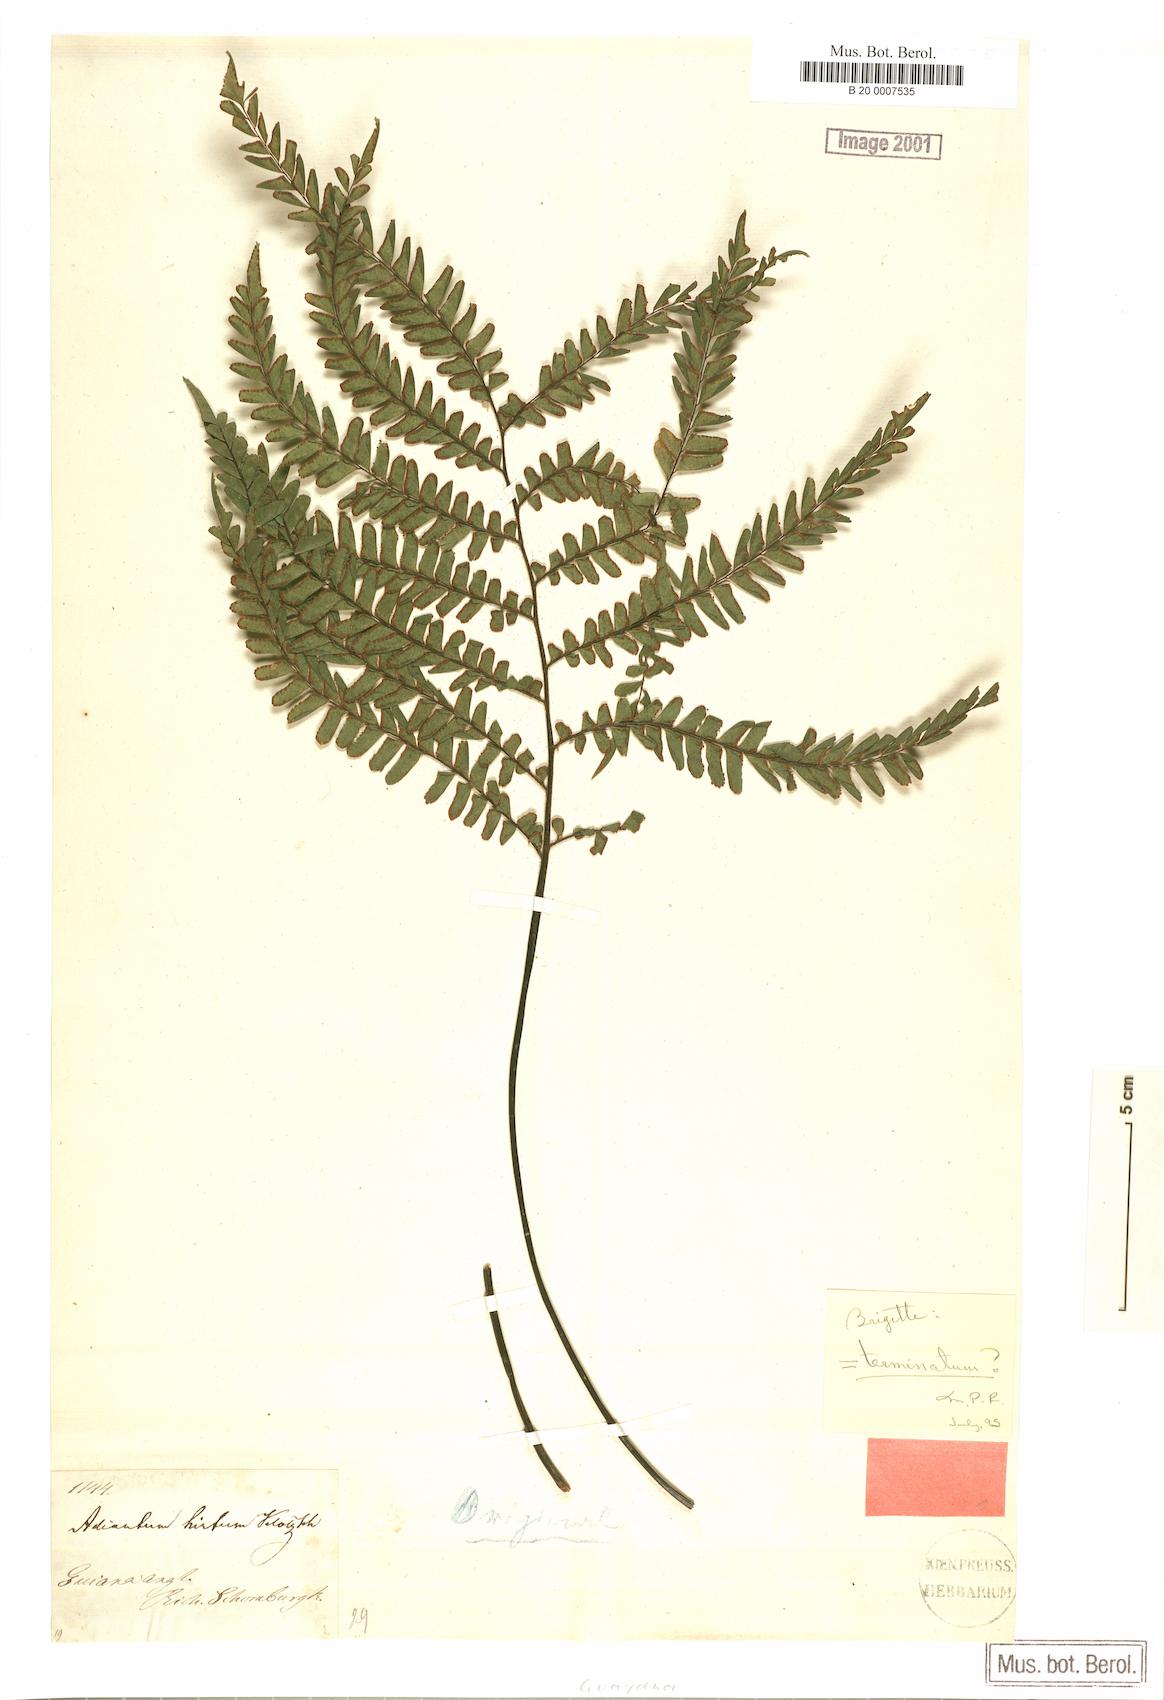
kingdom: Plantae
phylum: Tracheophyta
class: Polypodiopsida
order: Polypodiales
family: Pteridaceae
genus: Adiantum
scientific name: Adiantum terminatum
